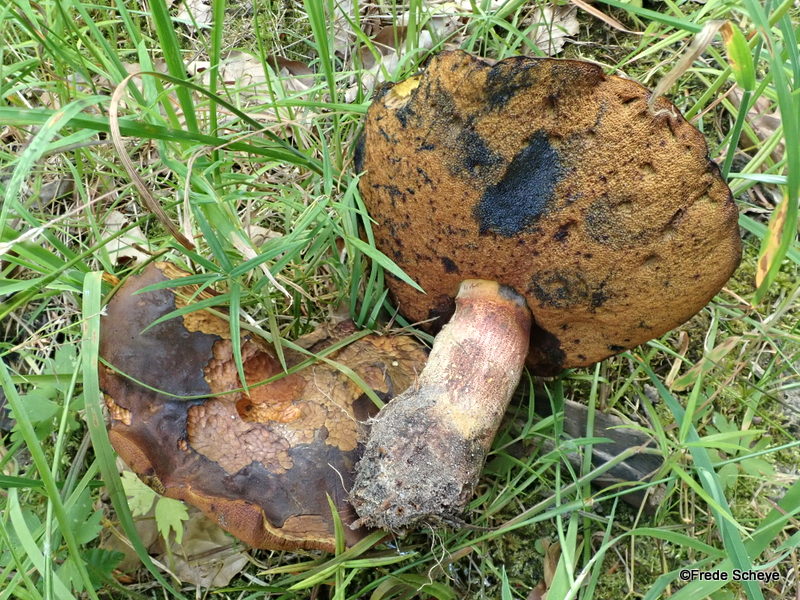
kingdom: Fungi
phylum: Basidiomycota
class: Agaricomycetes
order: Boletales
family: Boletaceae
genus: Neoboletus
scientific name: Neoboletus erythropus
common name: punktstokket indigorørhat
